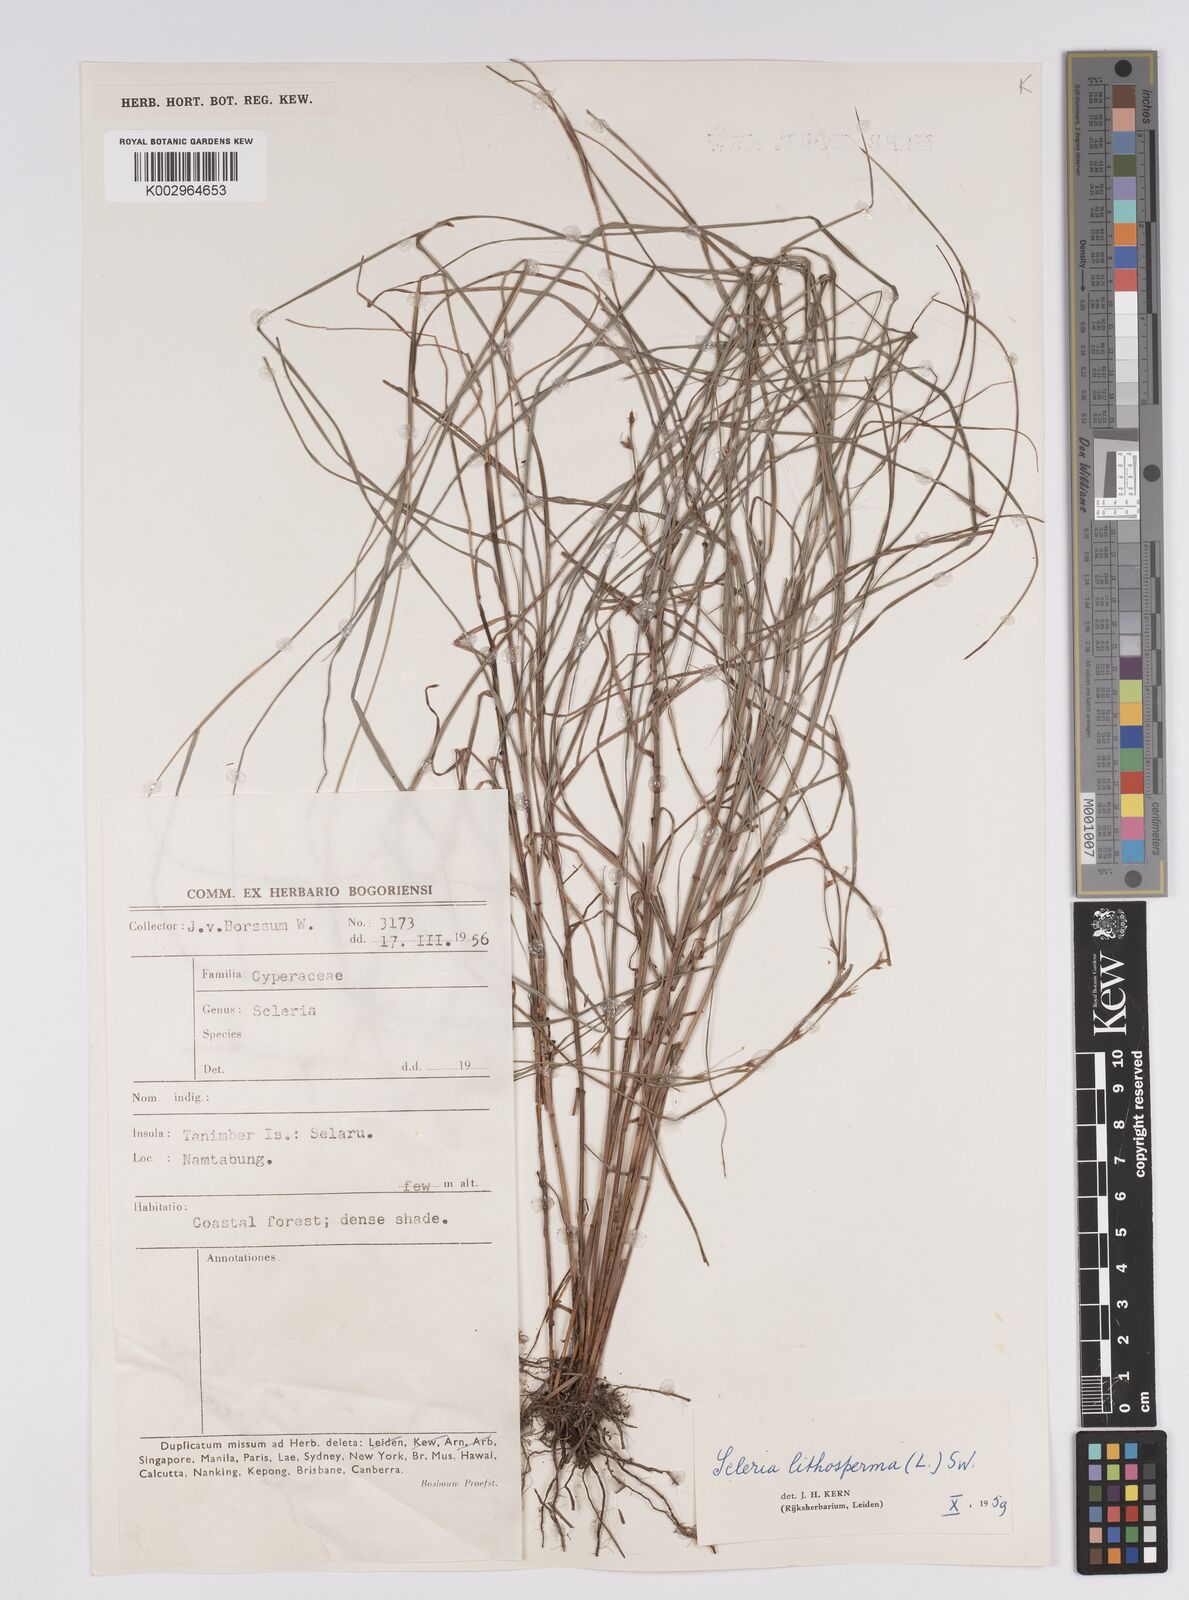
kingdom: Plantae
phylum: Tracheophyta
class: Liliopsida
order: Poales
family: Cyperaceae
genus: Scleria
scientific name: Scleria lithosperma
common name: Florida keys nut-rush
